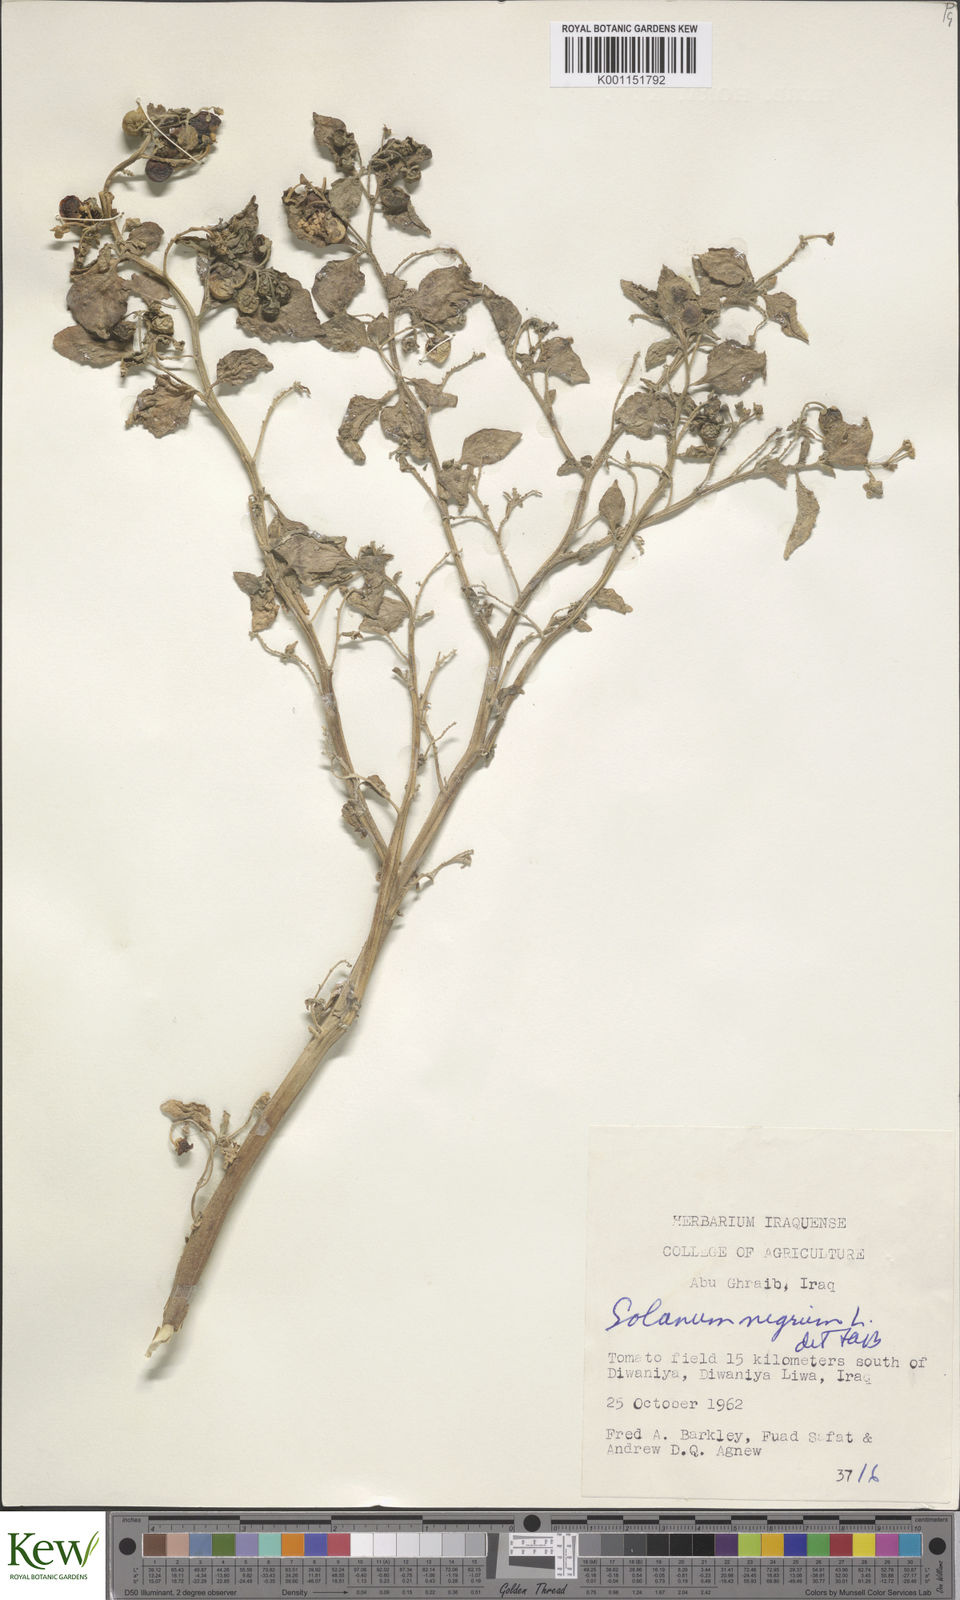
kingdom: Plantae
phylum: Tracheophyta
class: Magnoliopsida
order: Solanales
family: Solanaceae
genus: Solanum
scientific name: Solanum nigrum
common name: Black nightshade
